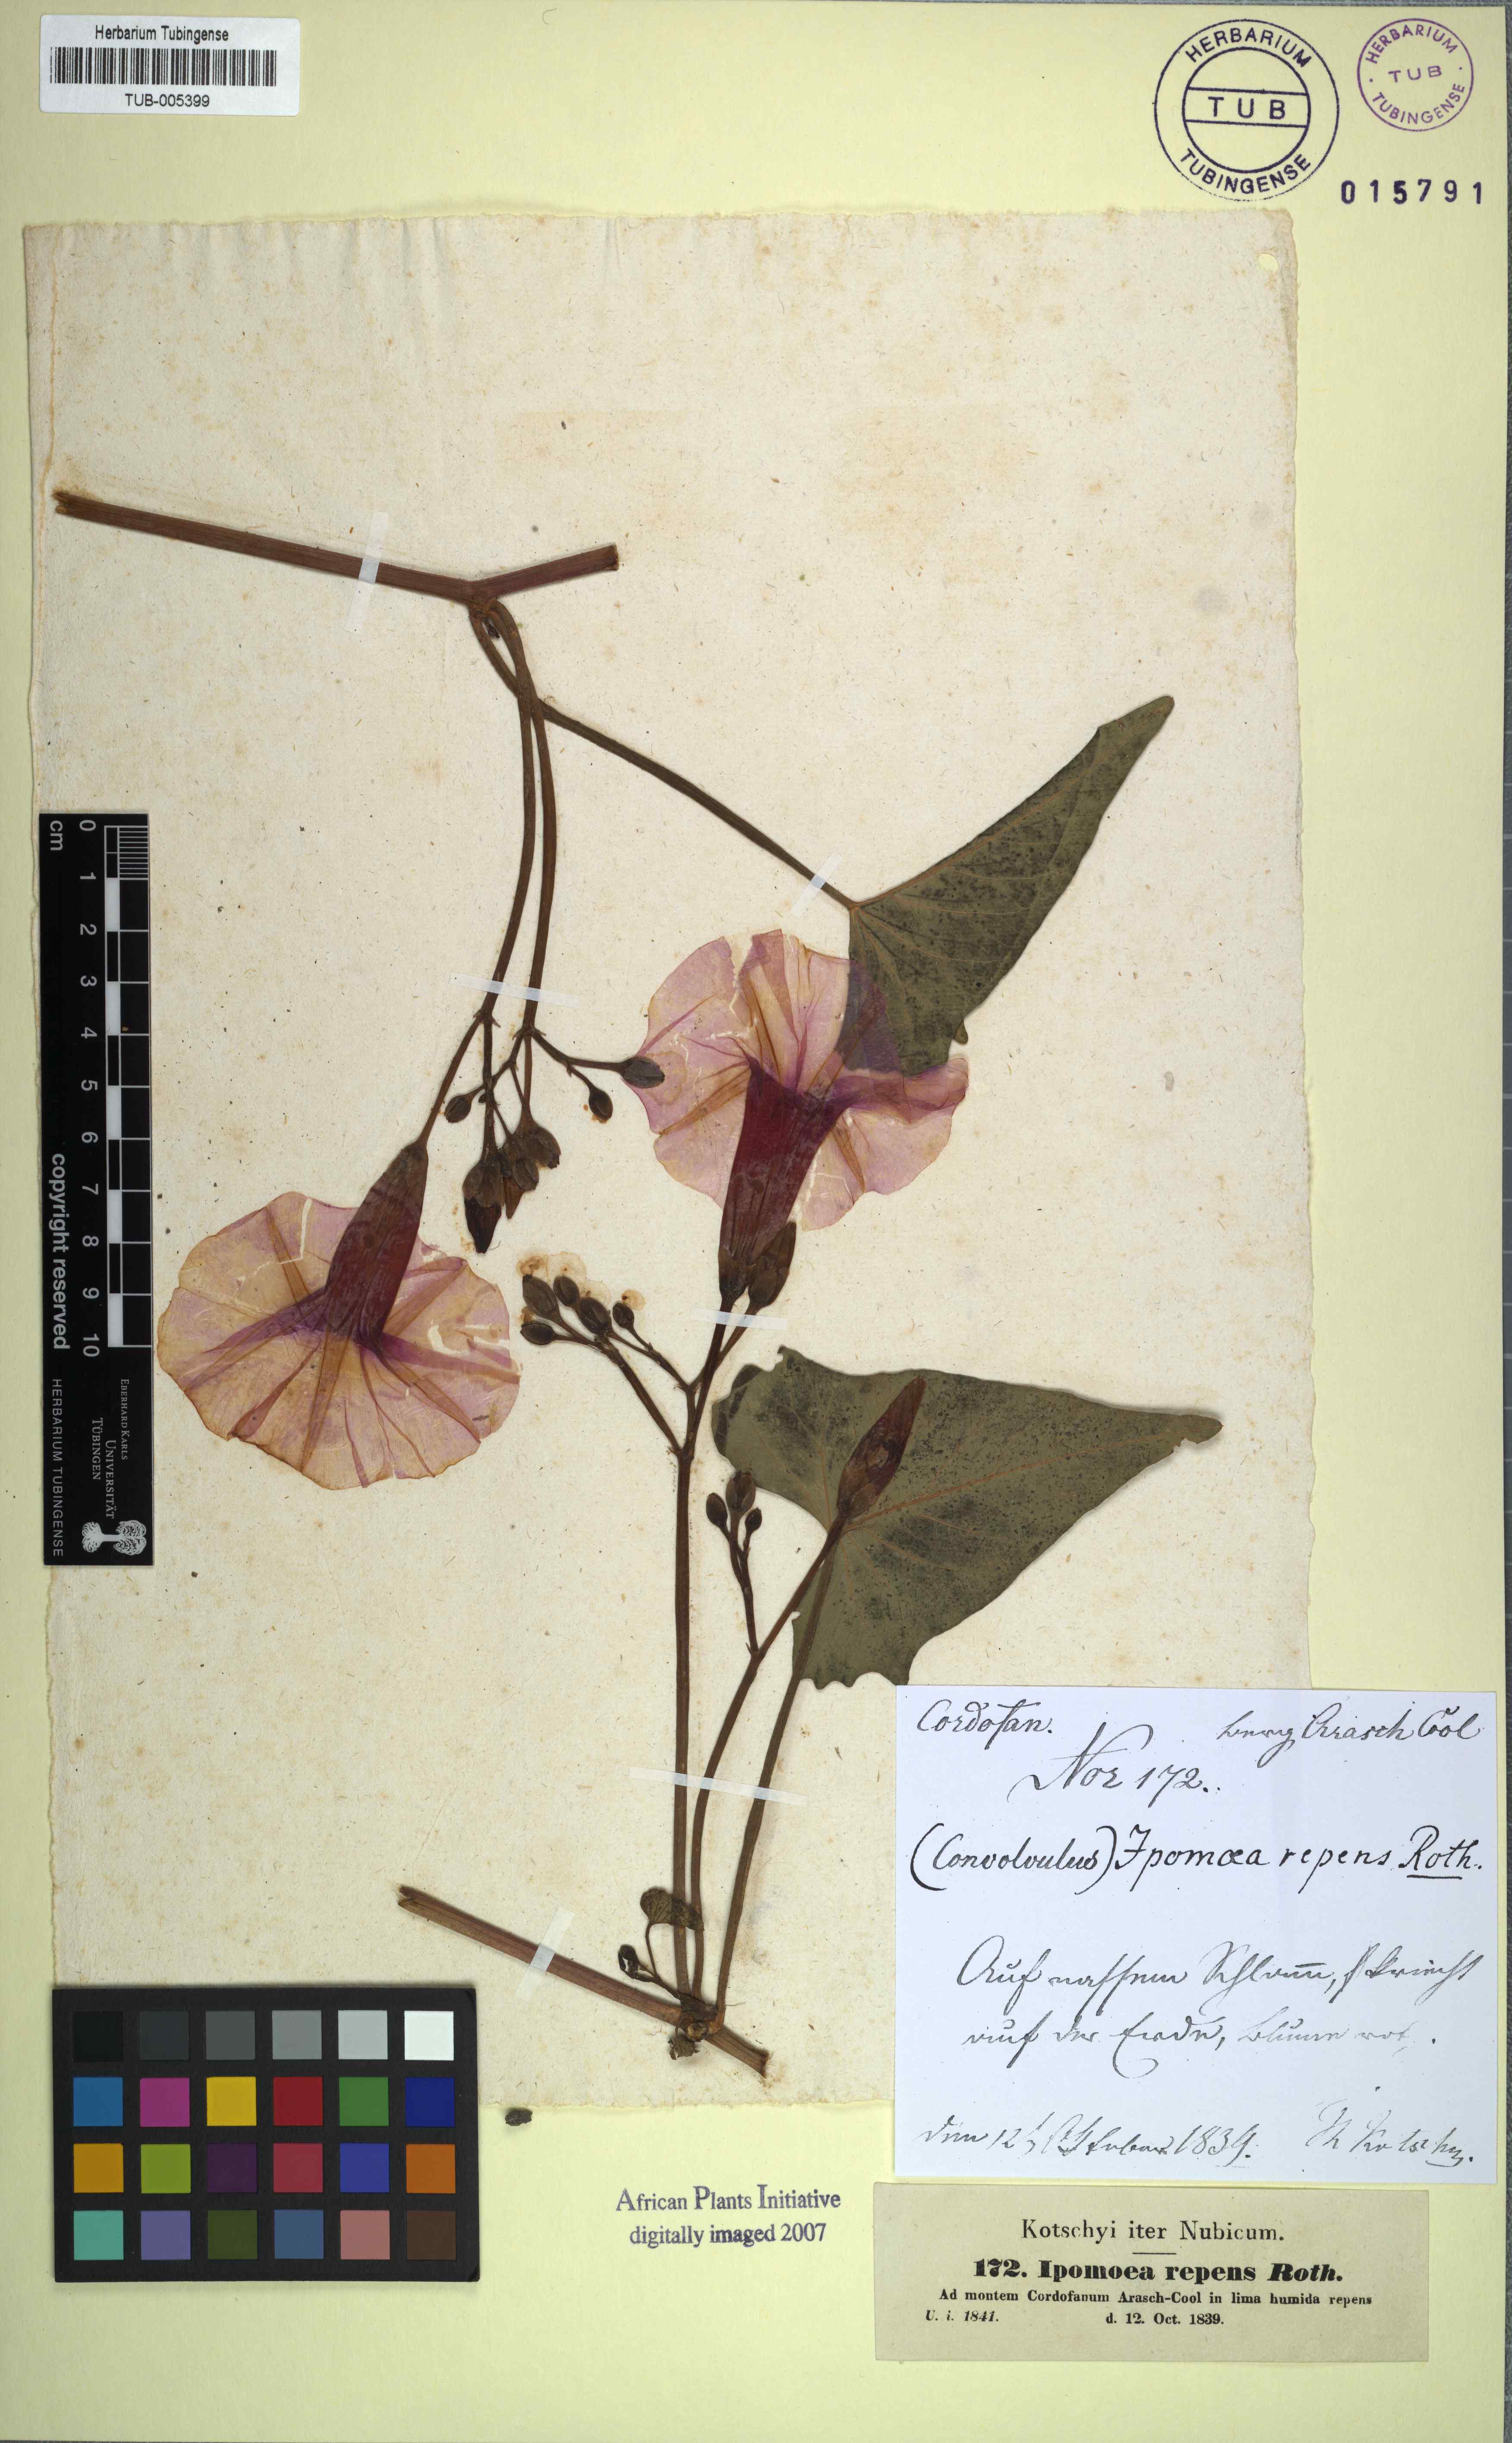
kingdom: Plantae
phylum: Tracheophyta
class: Magnoliopsida
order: Solanales
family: Convolvulaceae
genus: Ipomoea
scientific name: Ipomoea aquatica
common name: Swamp morning-glory
